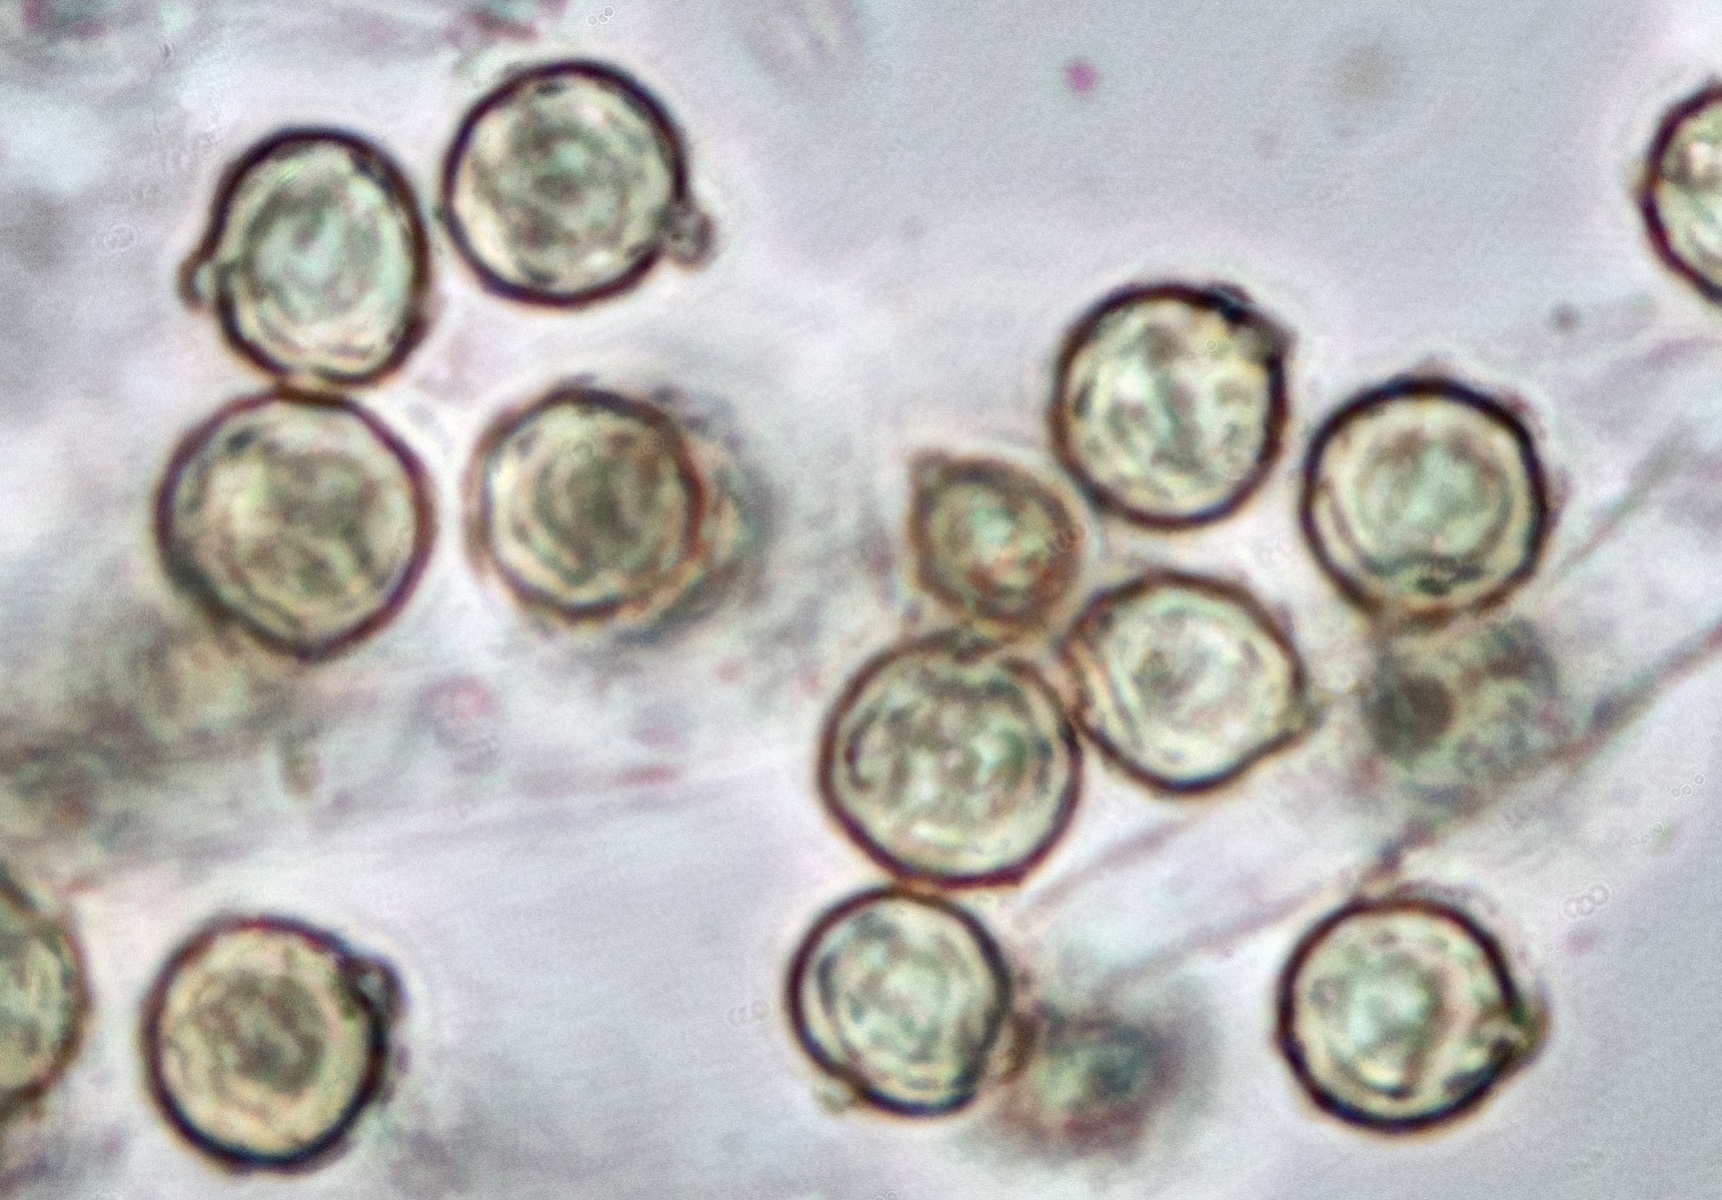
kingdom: Fungi
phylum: Basidiomycota
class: Agaricomycetes
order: Agaricales
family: Agaricaceae
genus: Tulostoma
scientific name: Tulostoma brumale
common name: vinter-stilkbovist
